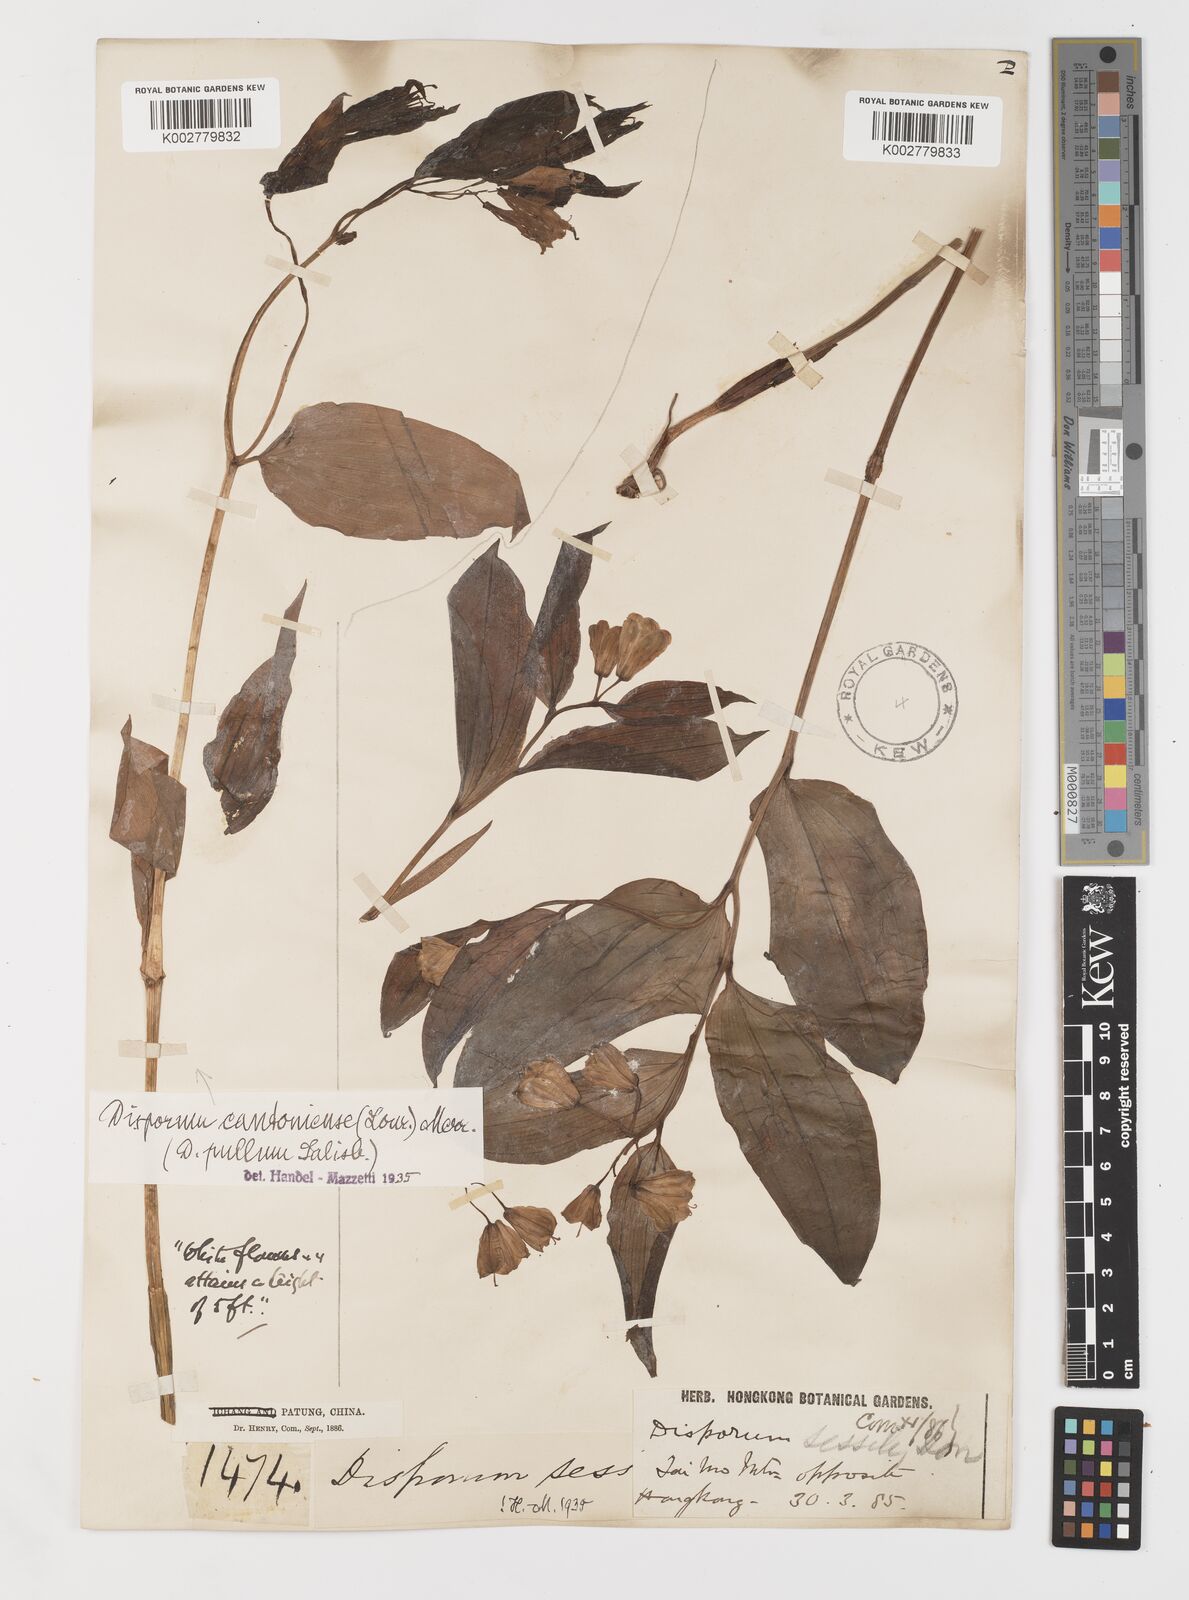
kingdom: Plantae
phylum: Tracheophyta
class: Liliopsida
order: Liliales
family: Colchicaceae
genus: Disporum
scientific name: Disporum sessile
